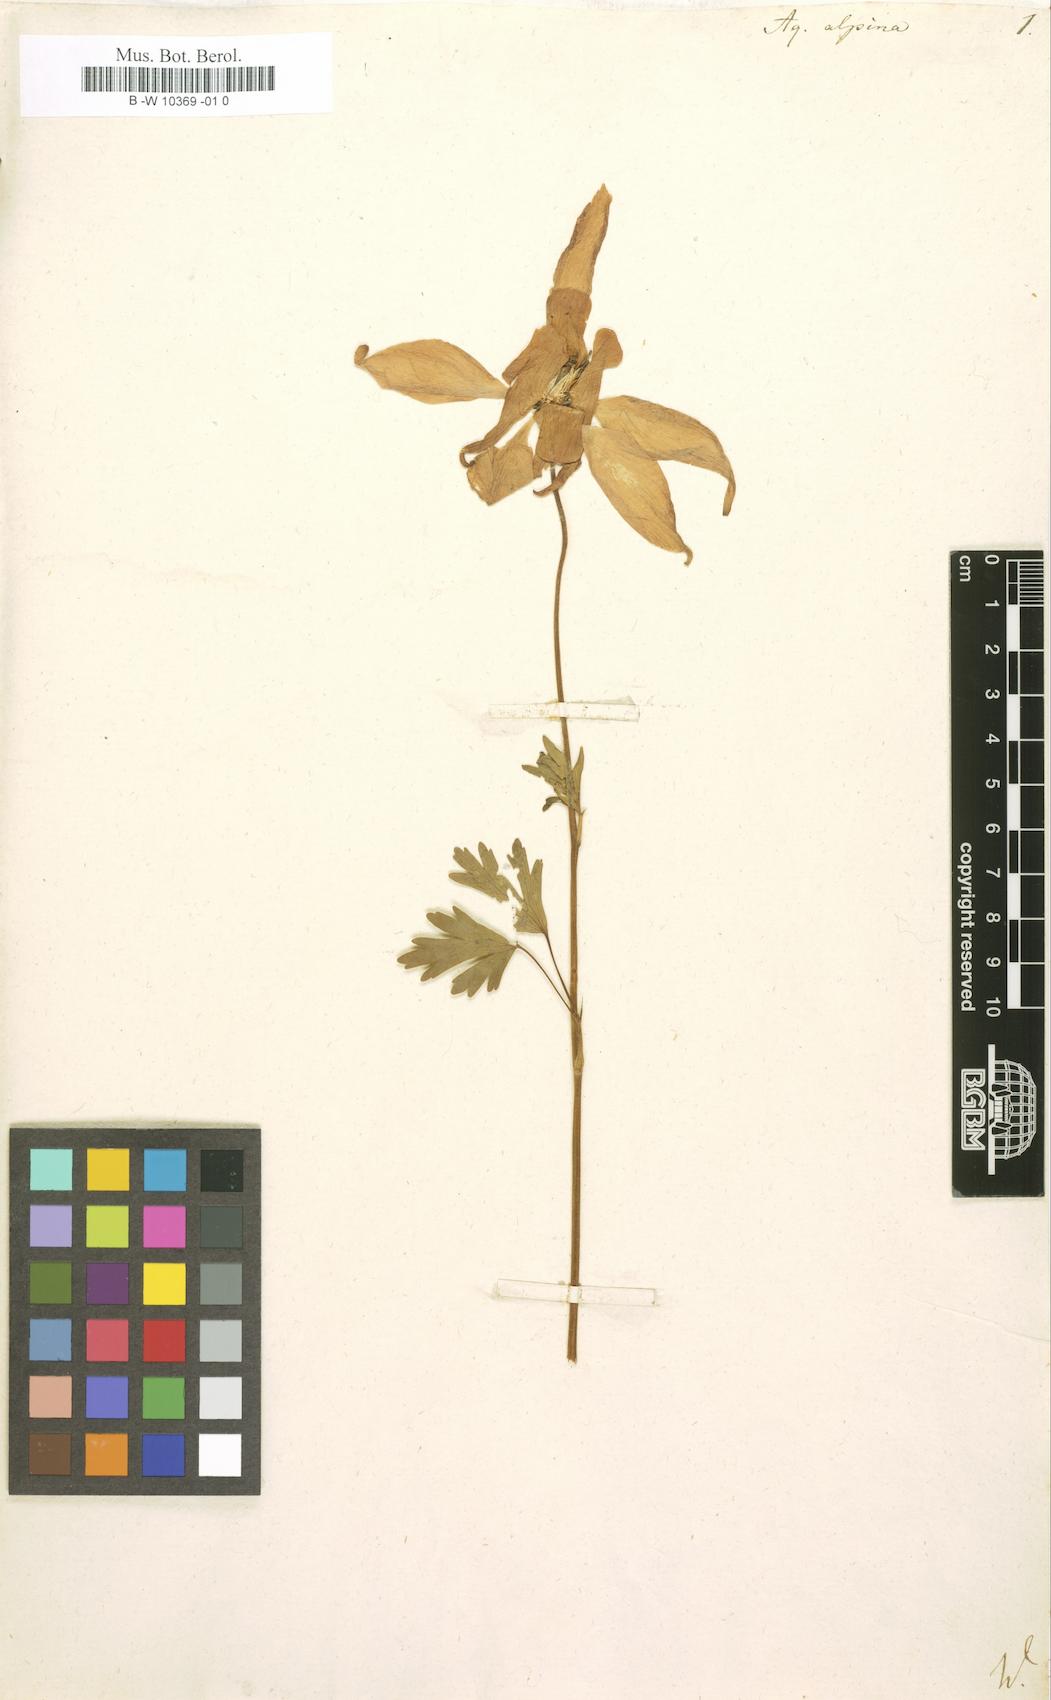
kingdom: Plantae
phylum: Tracheophyta
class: Magnoliopsida
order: Ranunculales
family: Ranunculaceae
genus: Aquilegia
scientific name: Aquilegia alpina
